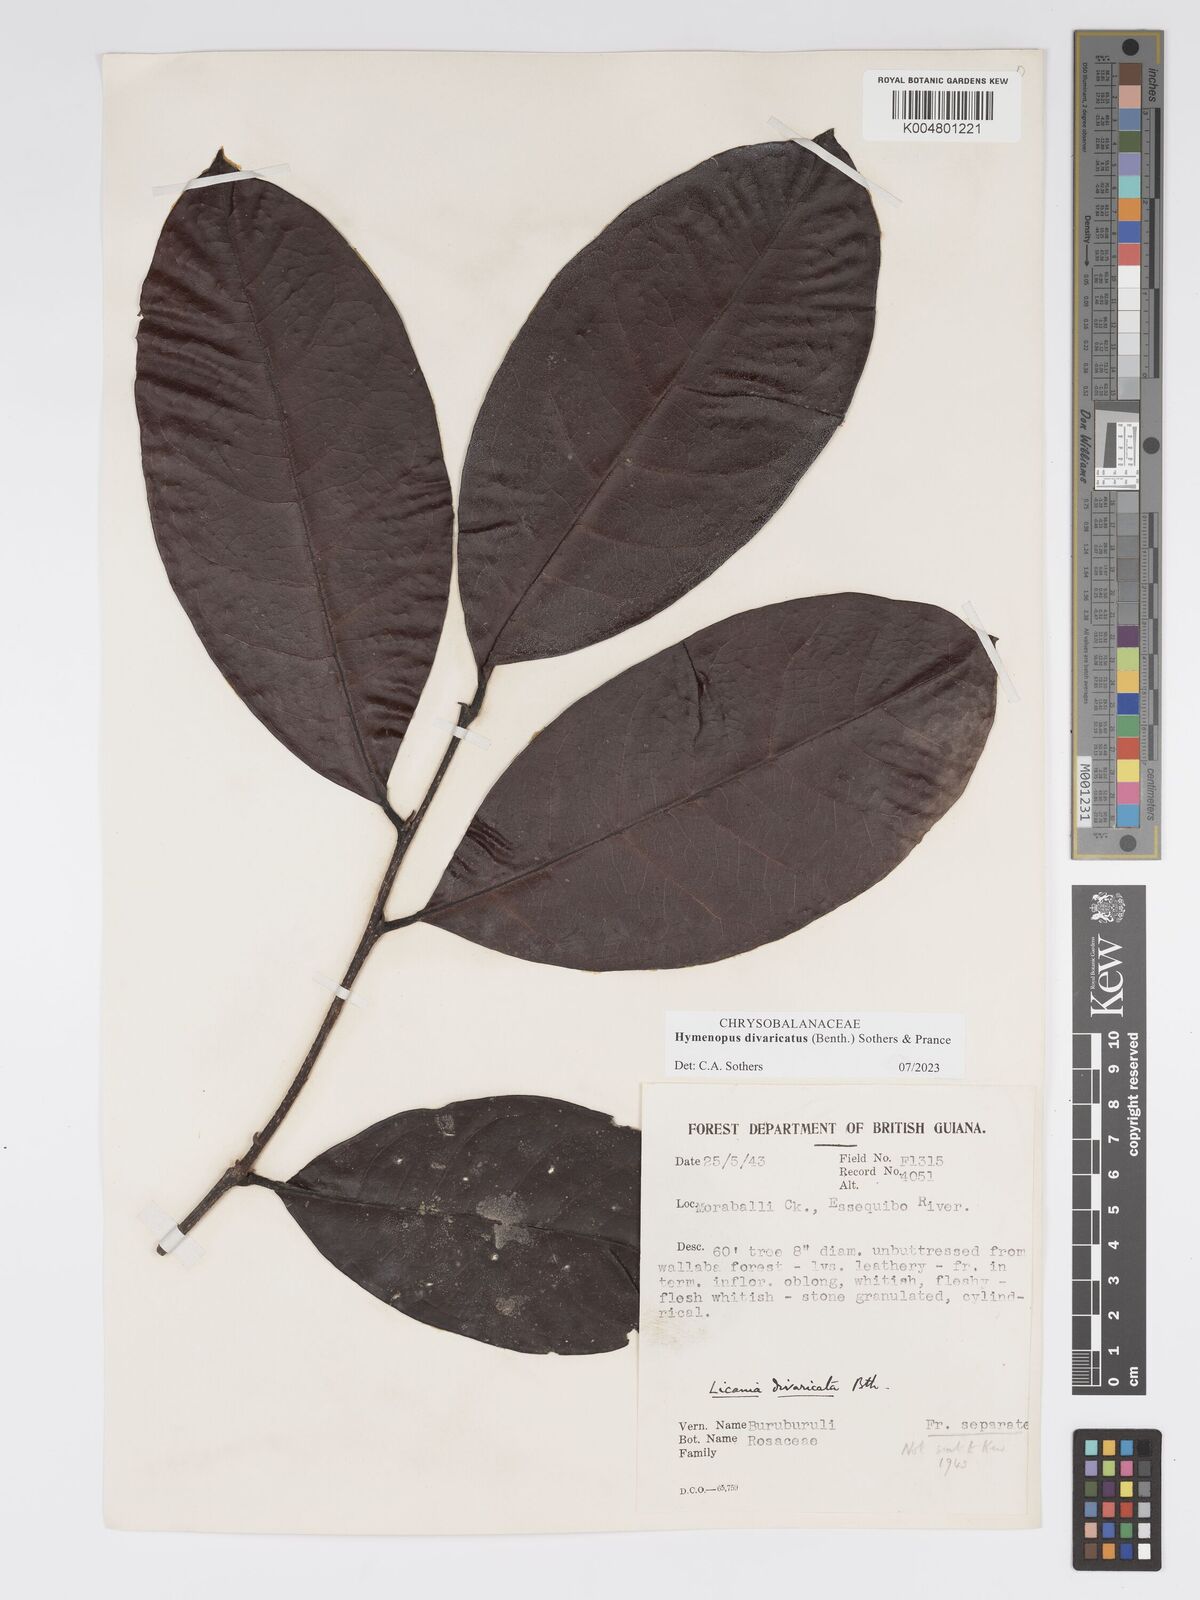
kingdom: Plantae
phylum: Tracheophyta
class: Magnoliopsida
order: Malpighiales
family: Chrysobalanaceae
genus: Hymenopus
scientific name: Hymenopus divaricatus
